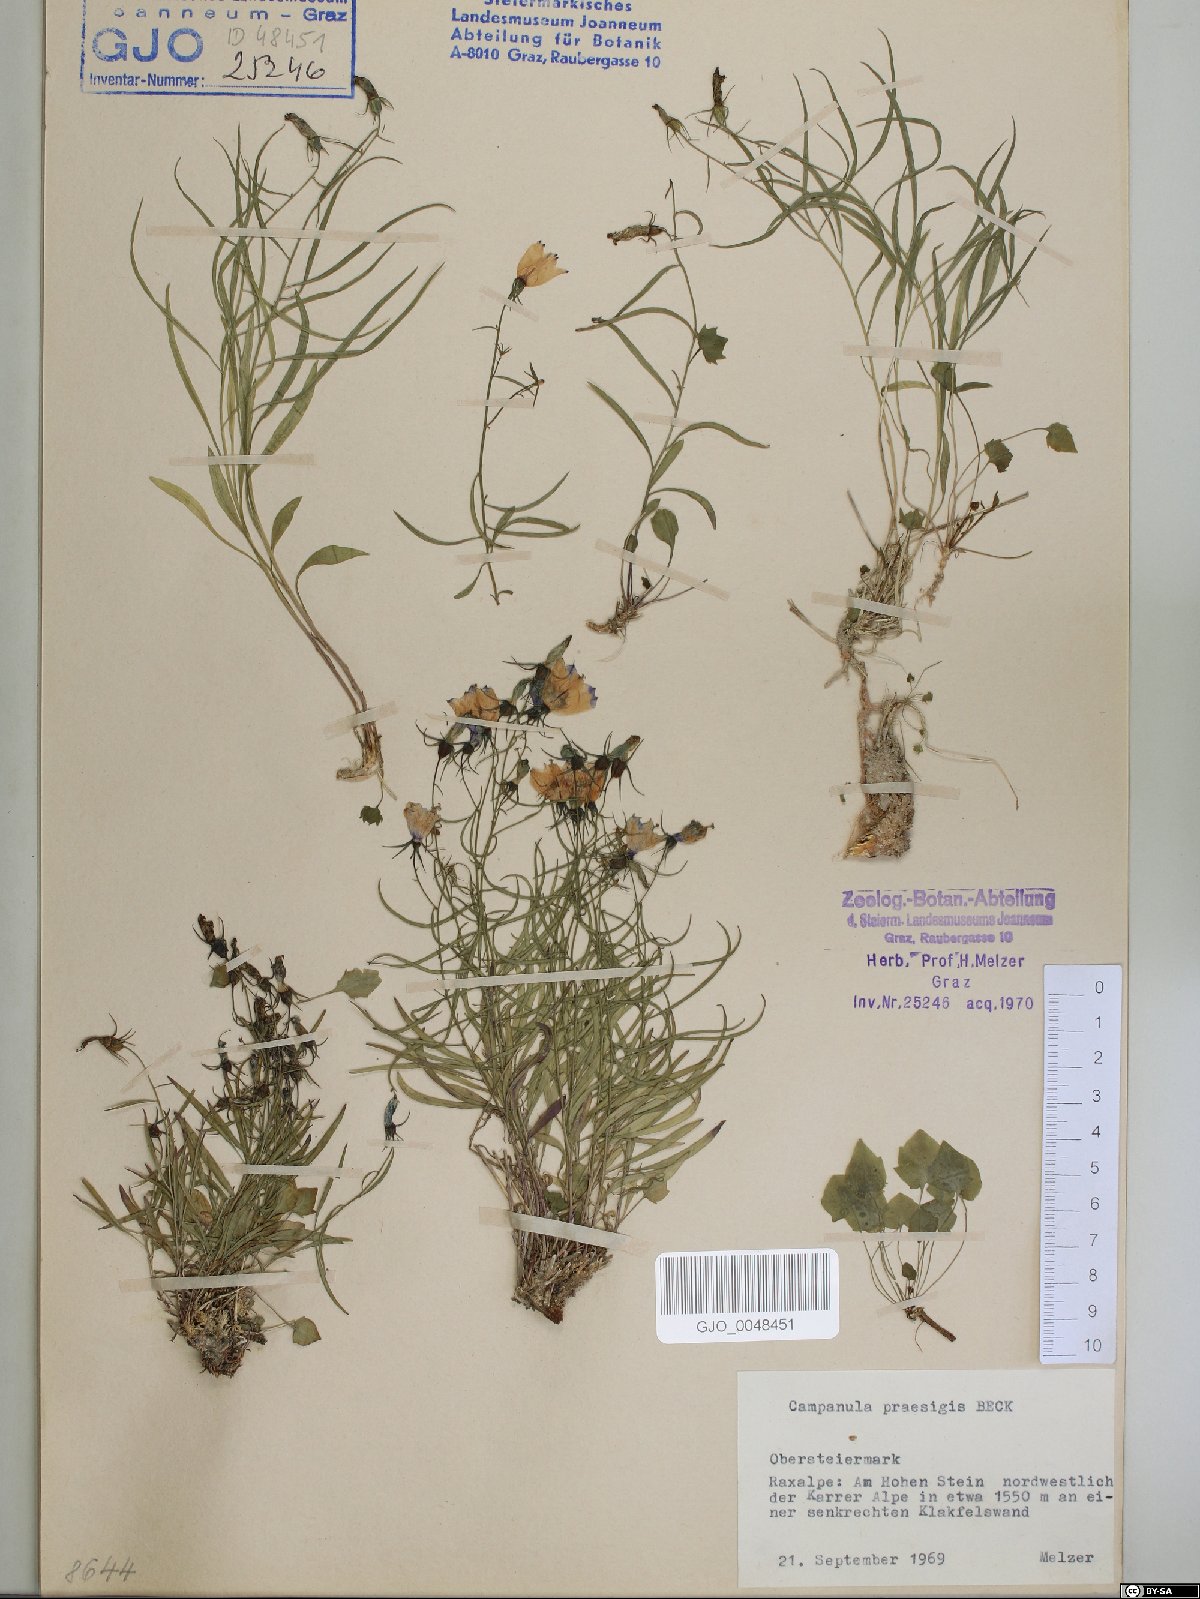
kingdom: Plantae
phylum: Tracheophyta
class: Magnoliopsida
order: Asterales
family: Campanulaceae
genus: Campanula
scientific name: Campanula praesignis
